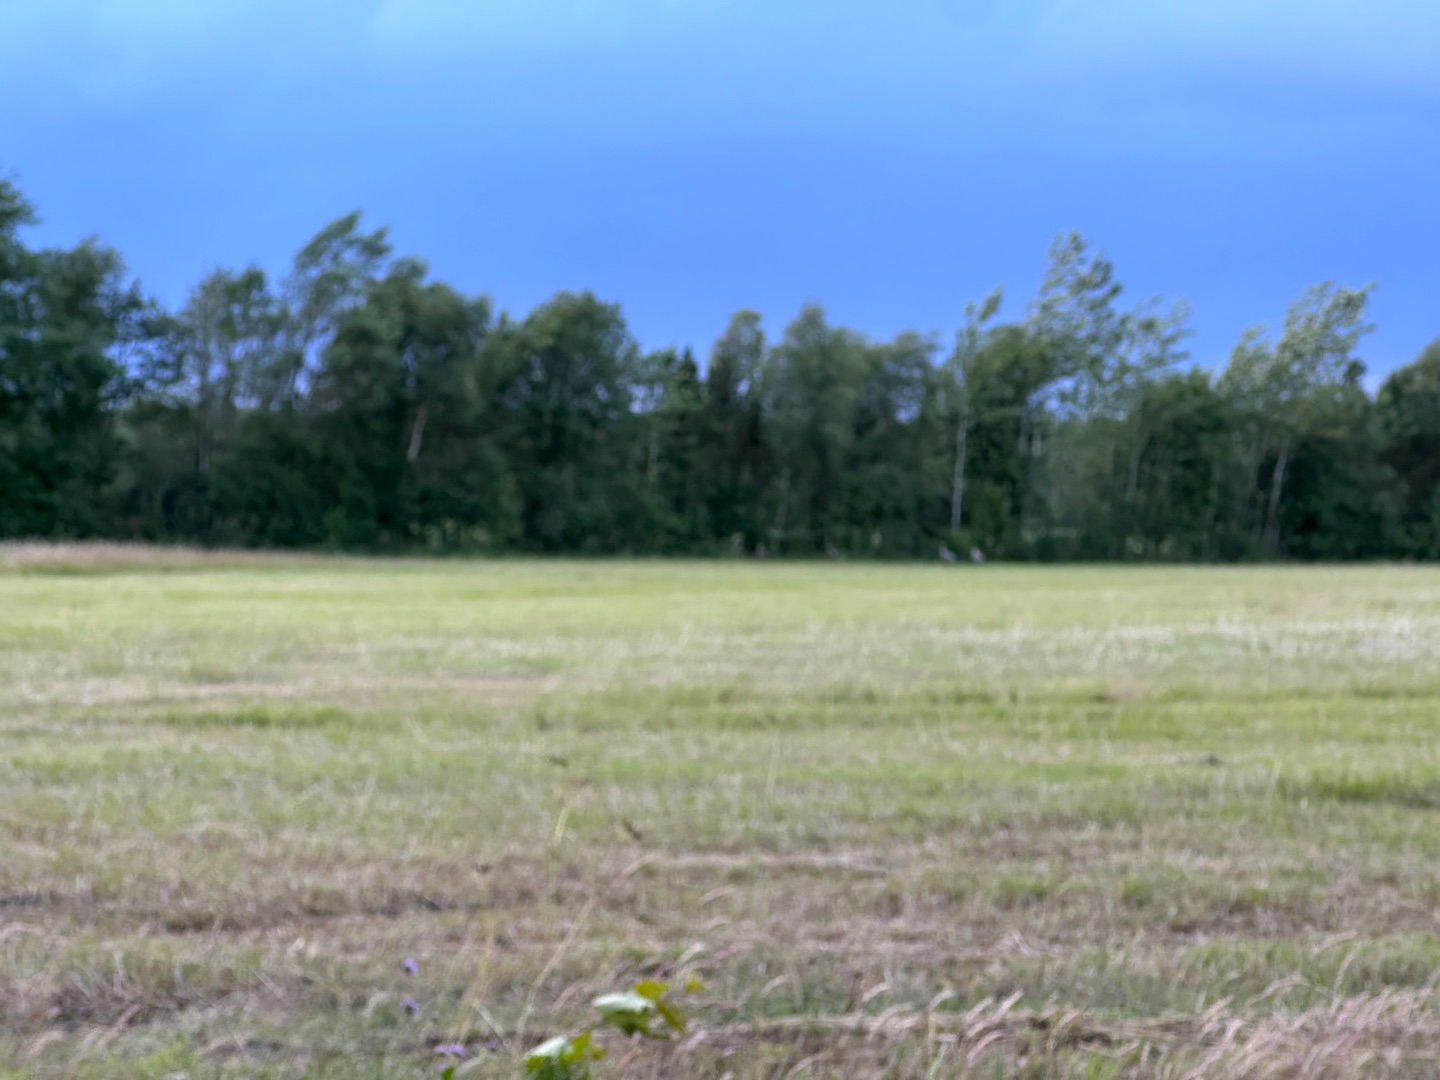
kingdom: Animalia
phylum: Chordata
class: Aves
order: Gruiformes
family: Gruidae
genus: Grus
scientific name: Grus grus
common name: Trane
